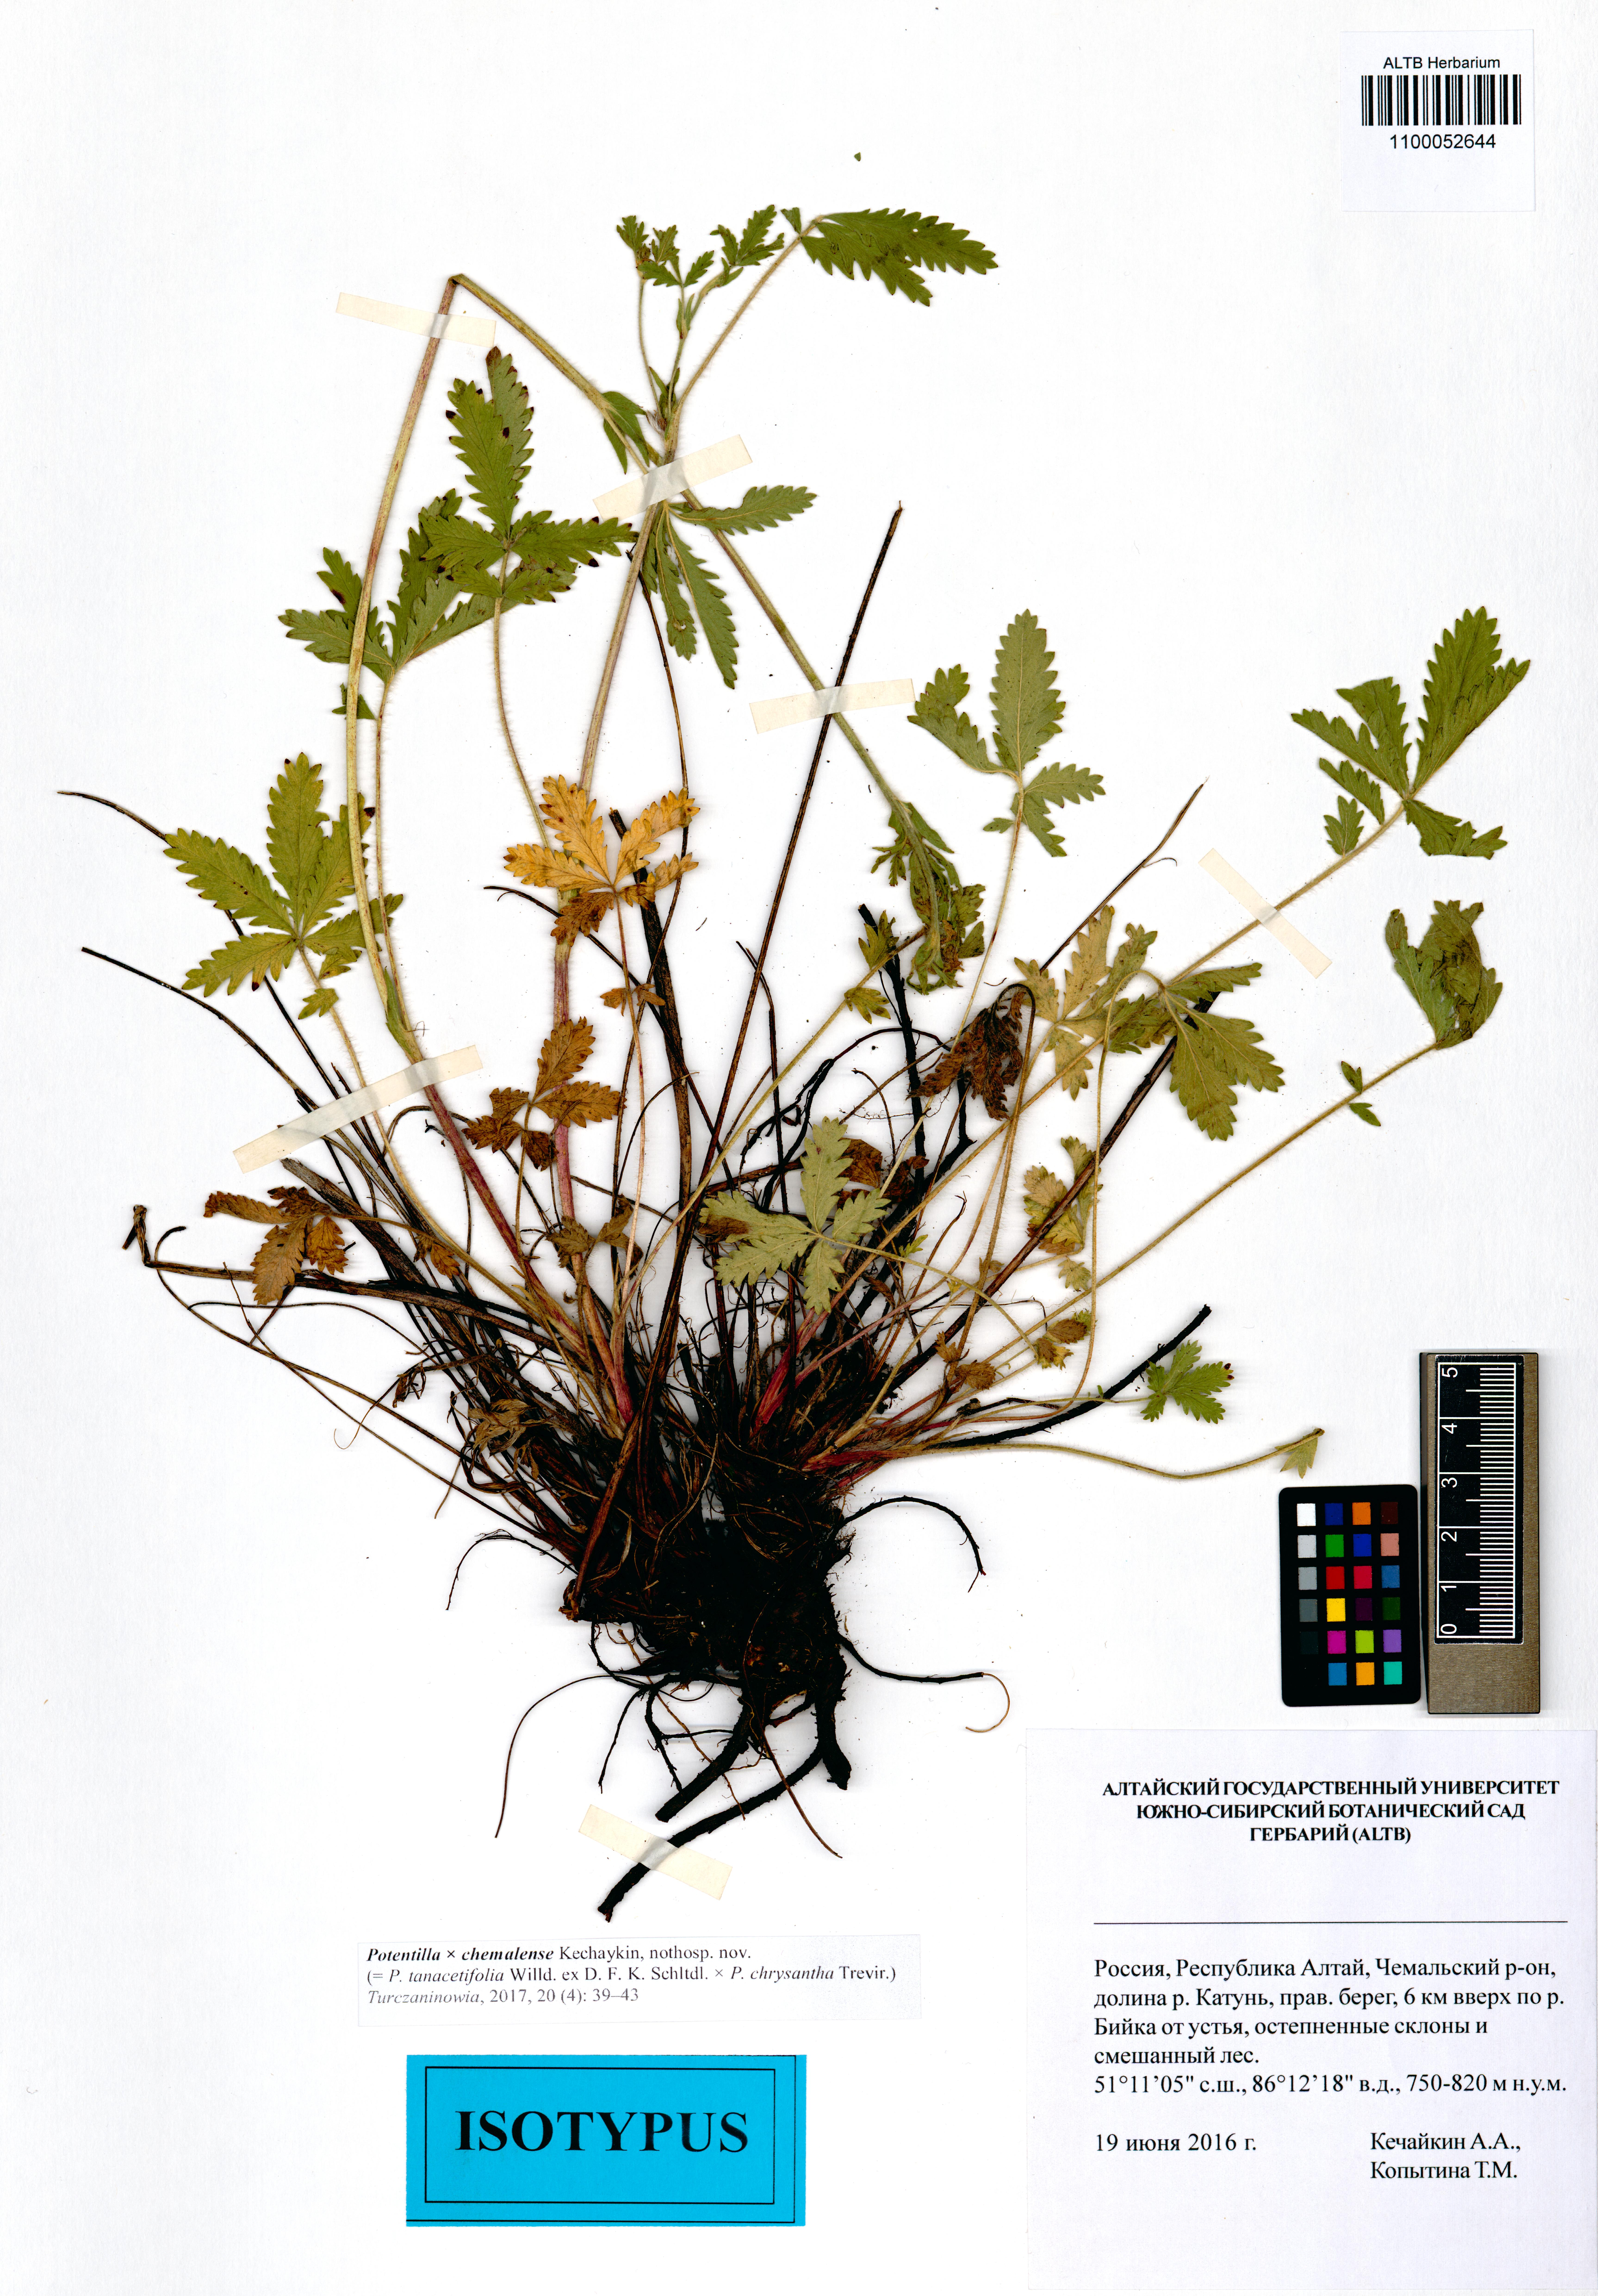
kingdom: Plantae
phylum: Tracheophyta
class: Magnoliopsida
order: Rosales
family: Rosaceae
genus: Potentilla
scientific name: Potentilla chemalensis
